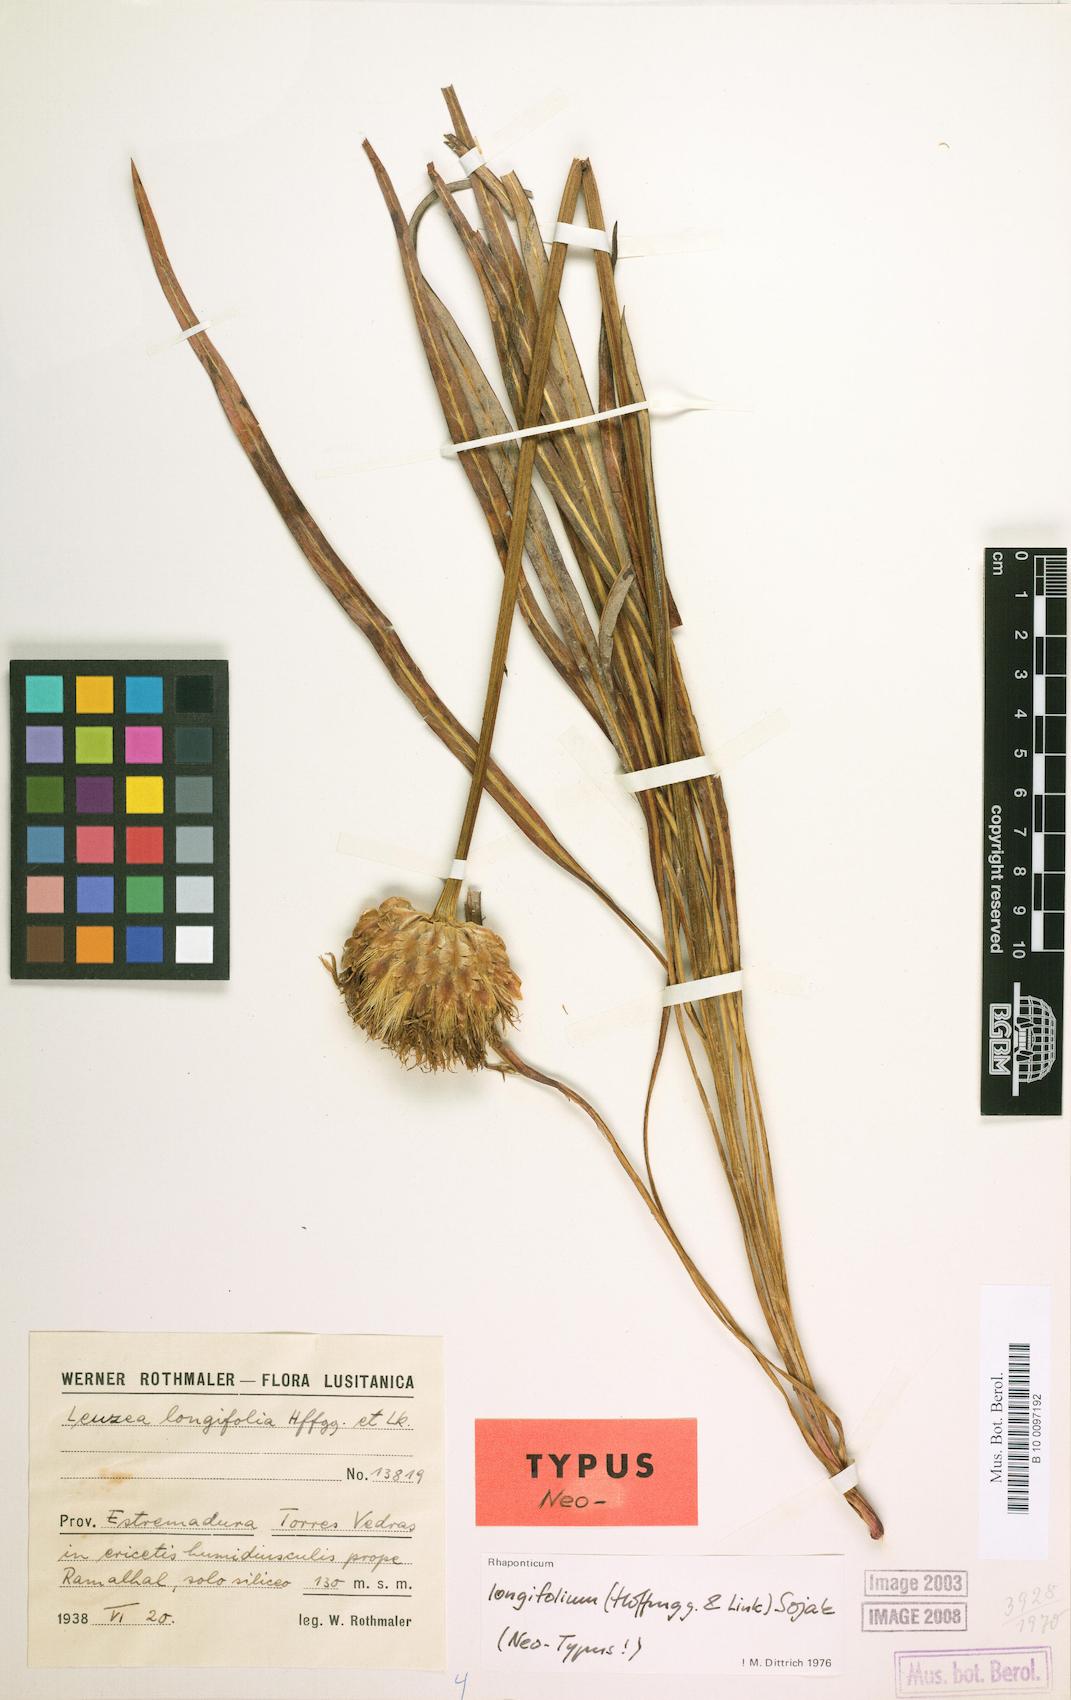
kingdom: Plantae
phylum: Tracheophyta
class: Magnoliopsida
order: Asterales
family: Asteraceae
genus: Leuzea
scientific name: Leuzea longifolia
